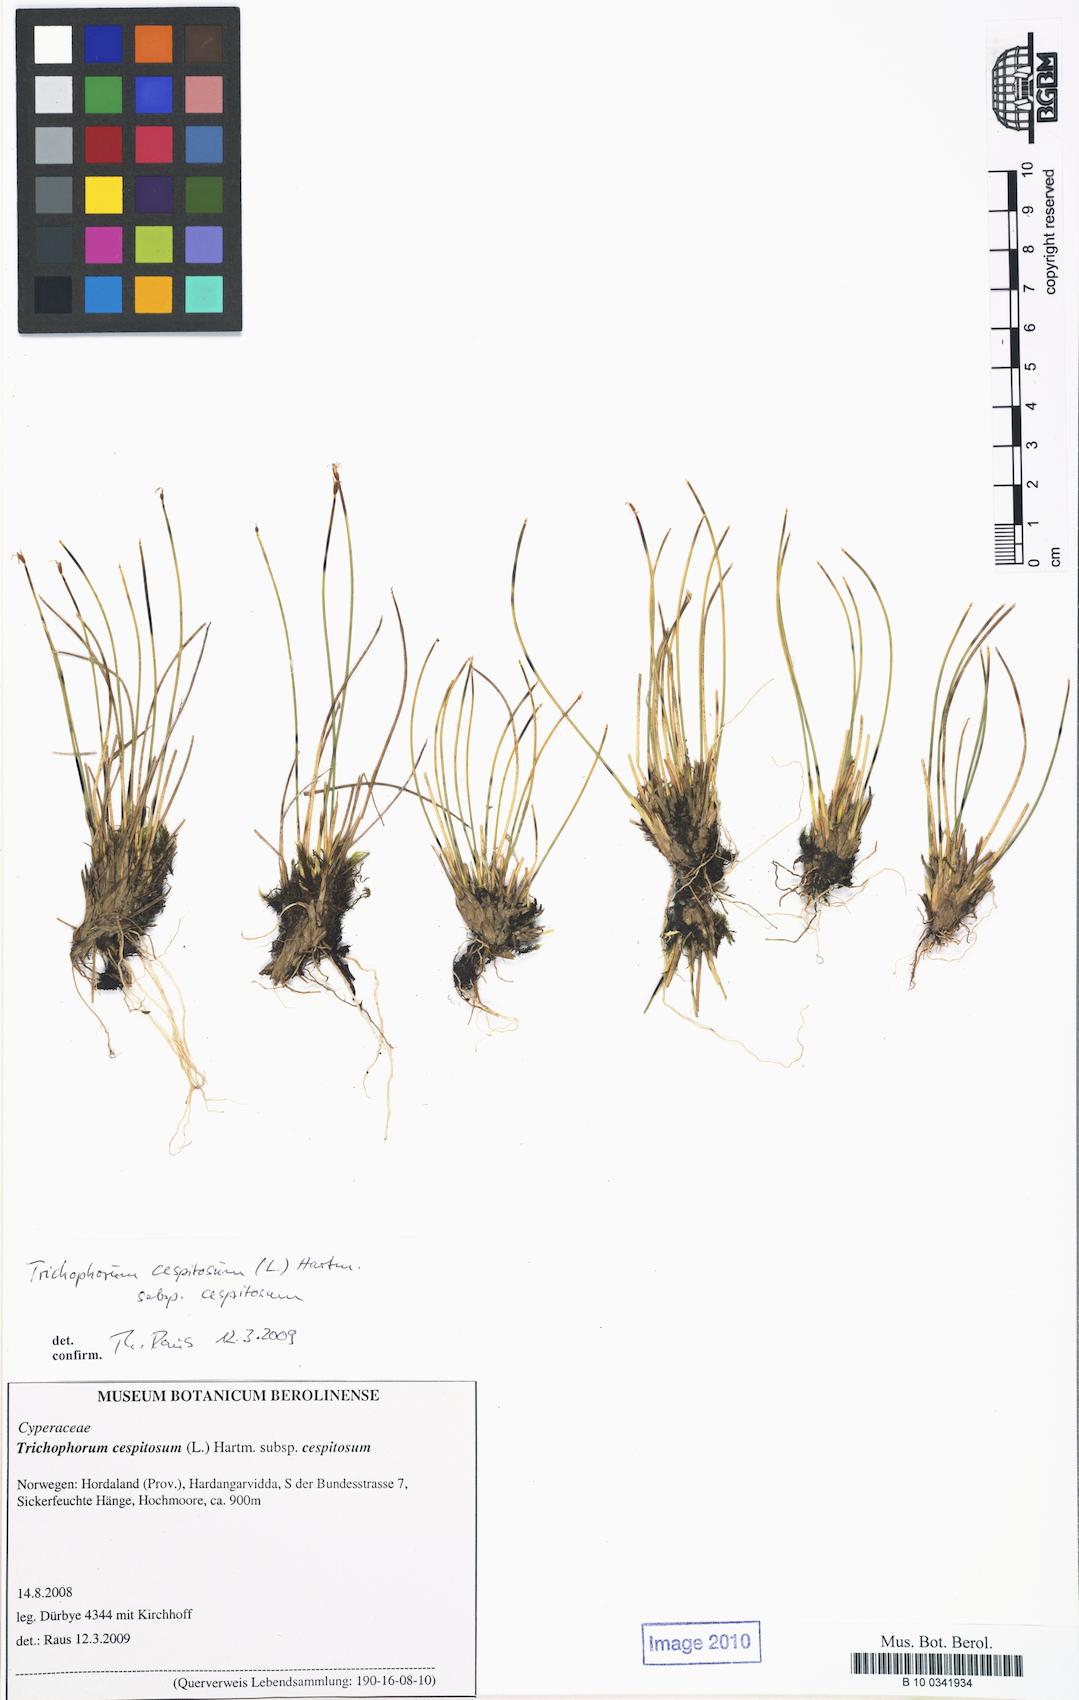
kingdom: Plantae
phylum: Tracheophyta
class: Liliopsida
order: Poales
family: Cyperaceae
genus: Trichophorum
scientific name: Trichophorum cespitosum
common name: Cespitose bulrush
